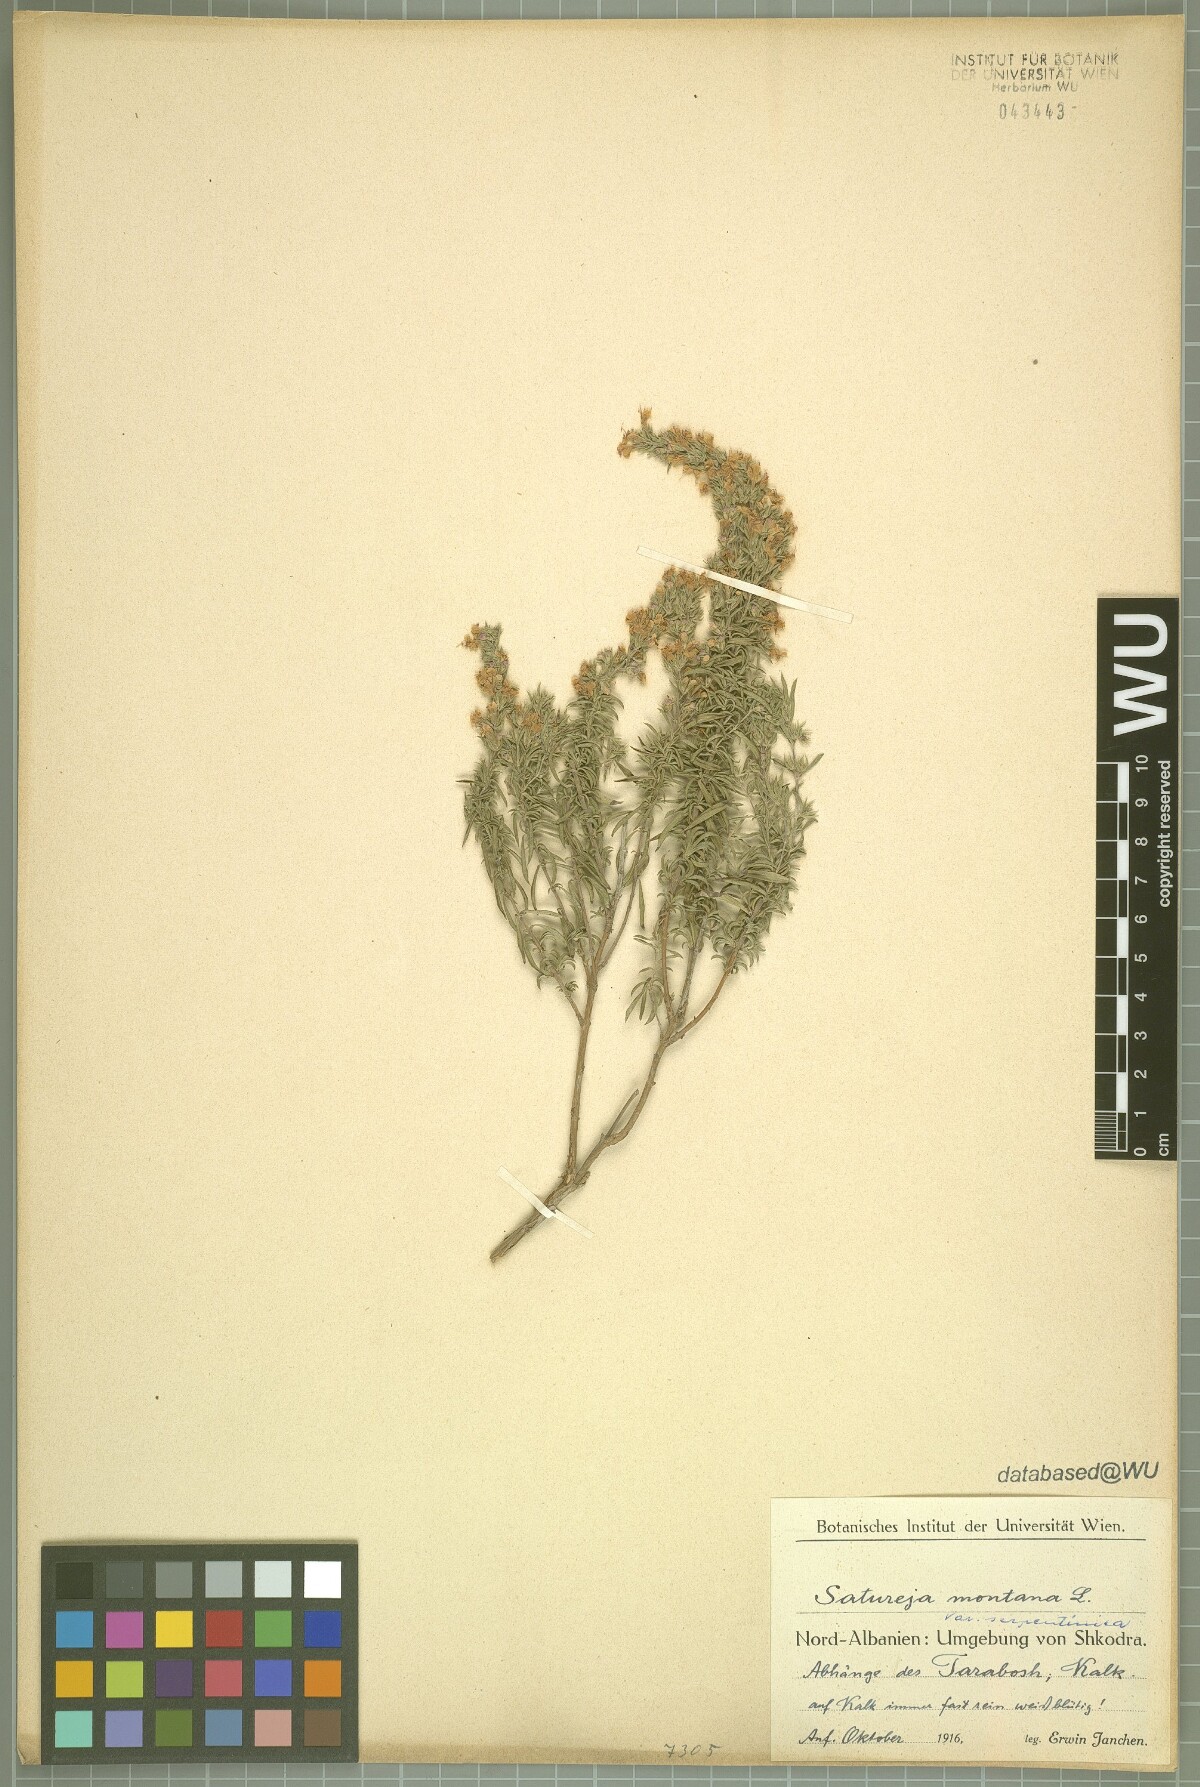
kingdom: Plantae
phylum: Tracheophyta
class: Magnoliopsida
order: Lamiales
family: Lamiaceae
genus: Satureja
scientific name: Satureja montana
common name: Winter savory
